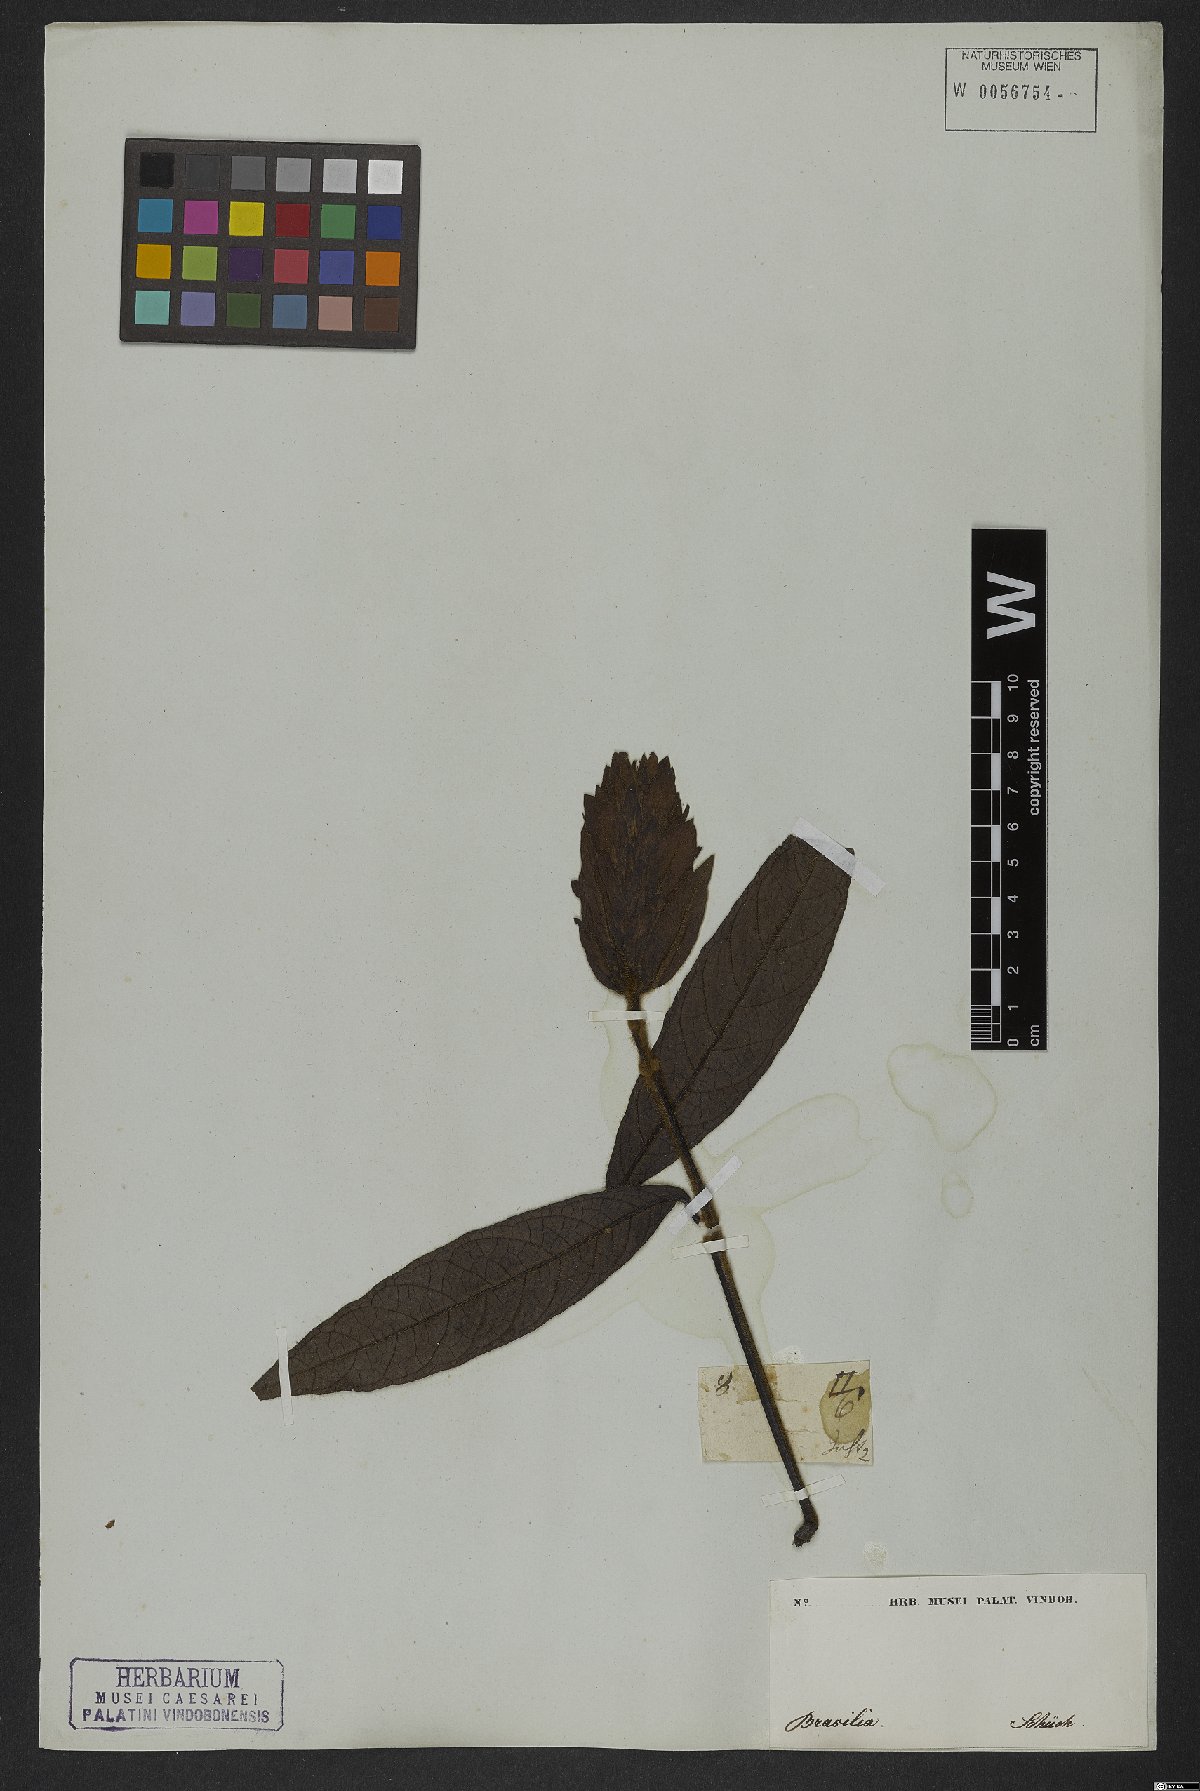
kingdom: Plantae
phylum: Tracheophyta
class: Magnoliopsida
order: Gentianales
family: Rubiaceae
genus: Gonzalagunia
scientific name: Gonzalagunia hirsuta
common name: Mata de mariposa
